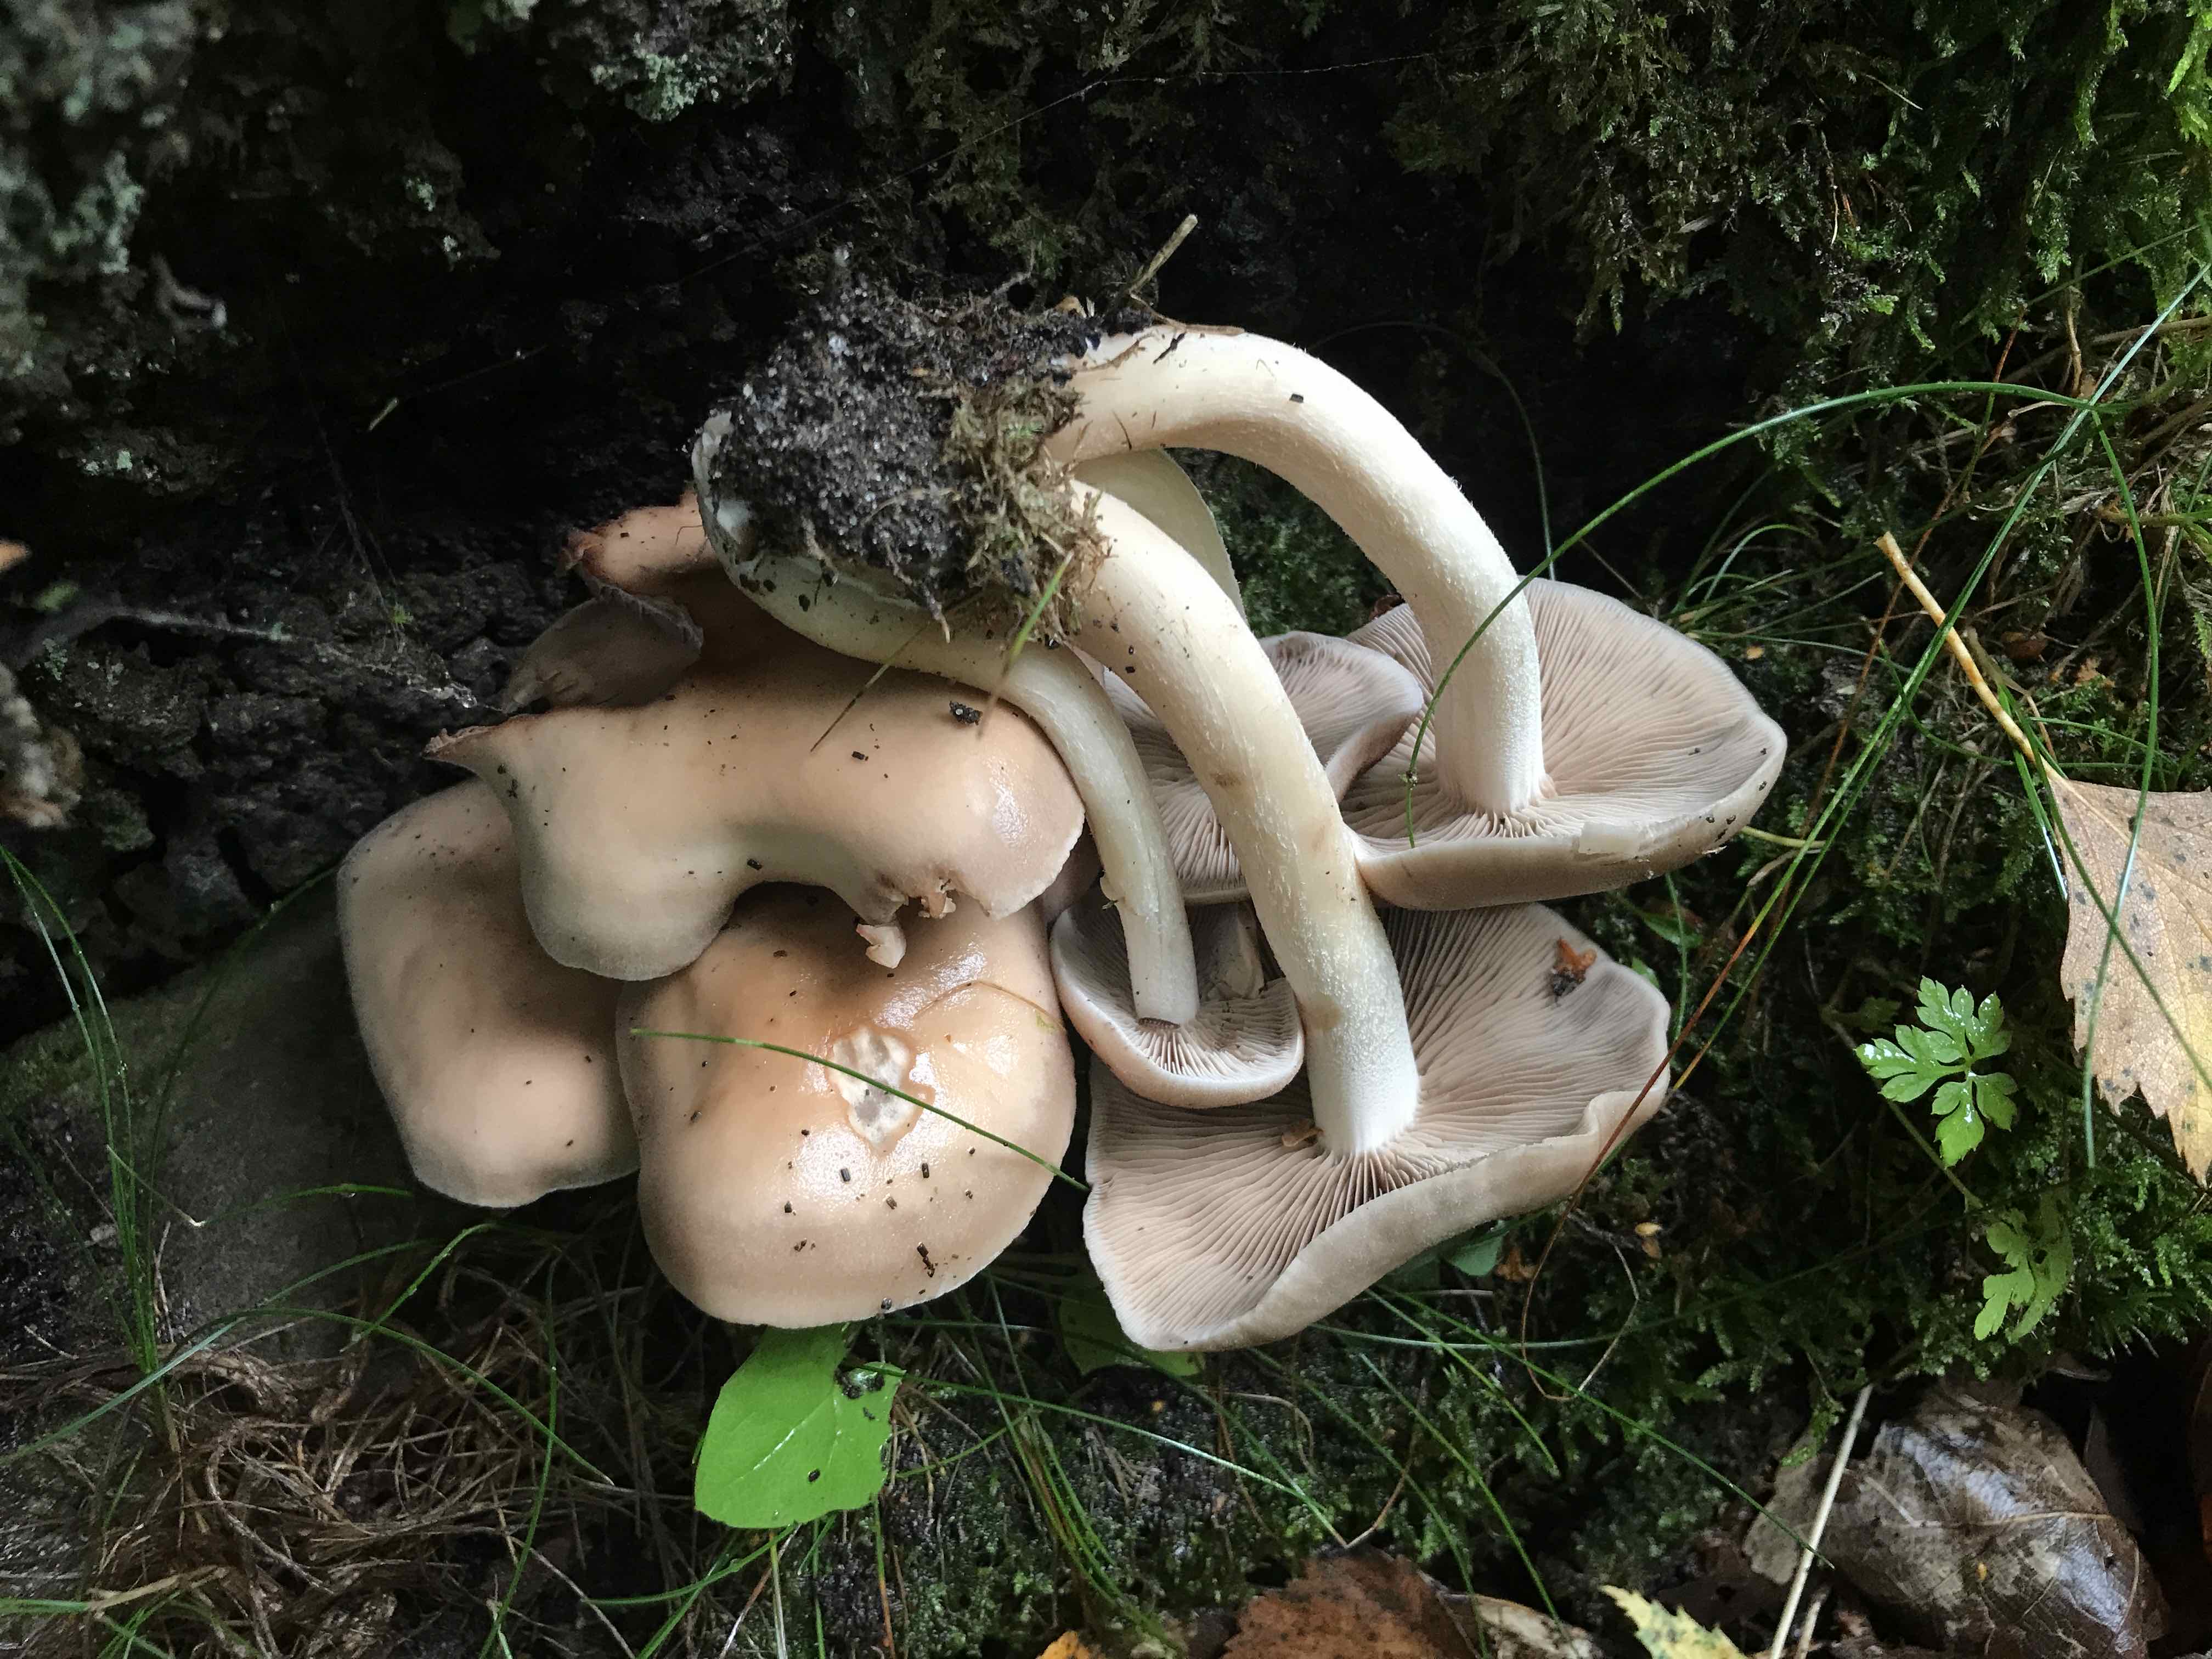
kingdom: Fungi
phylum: Basidiomycota
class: Agaricomycetes
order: Agaricales
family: Hymenogastraceae
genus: Hebeloma
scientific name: Hebeloma
